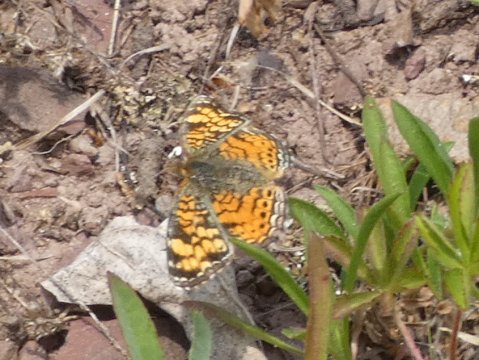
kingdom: Animalia
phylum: Arthropoda
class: Insecta
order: Lepidoptera
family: Nymphalidae
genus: Phyciodes
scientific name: Phyciodes tharos
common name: Pearl Crescent
